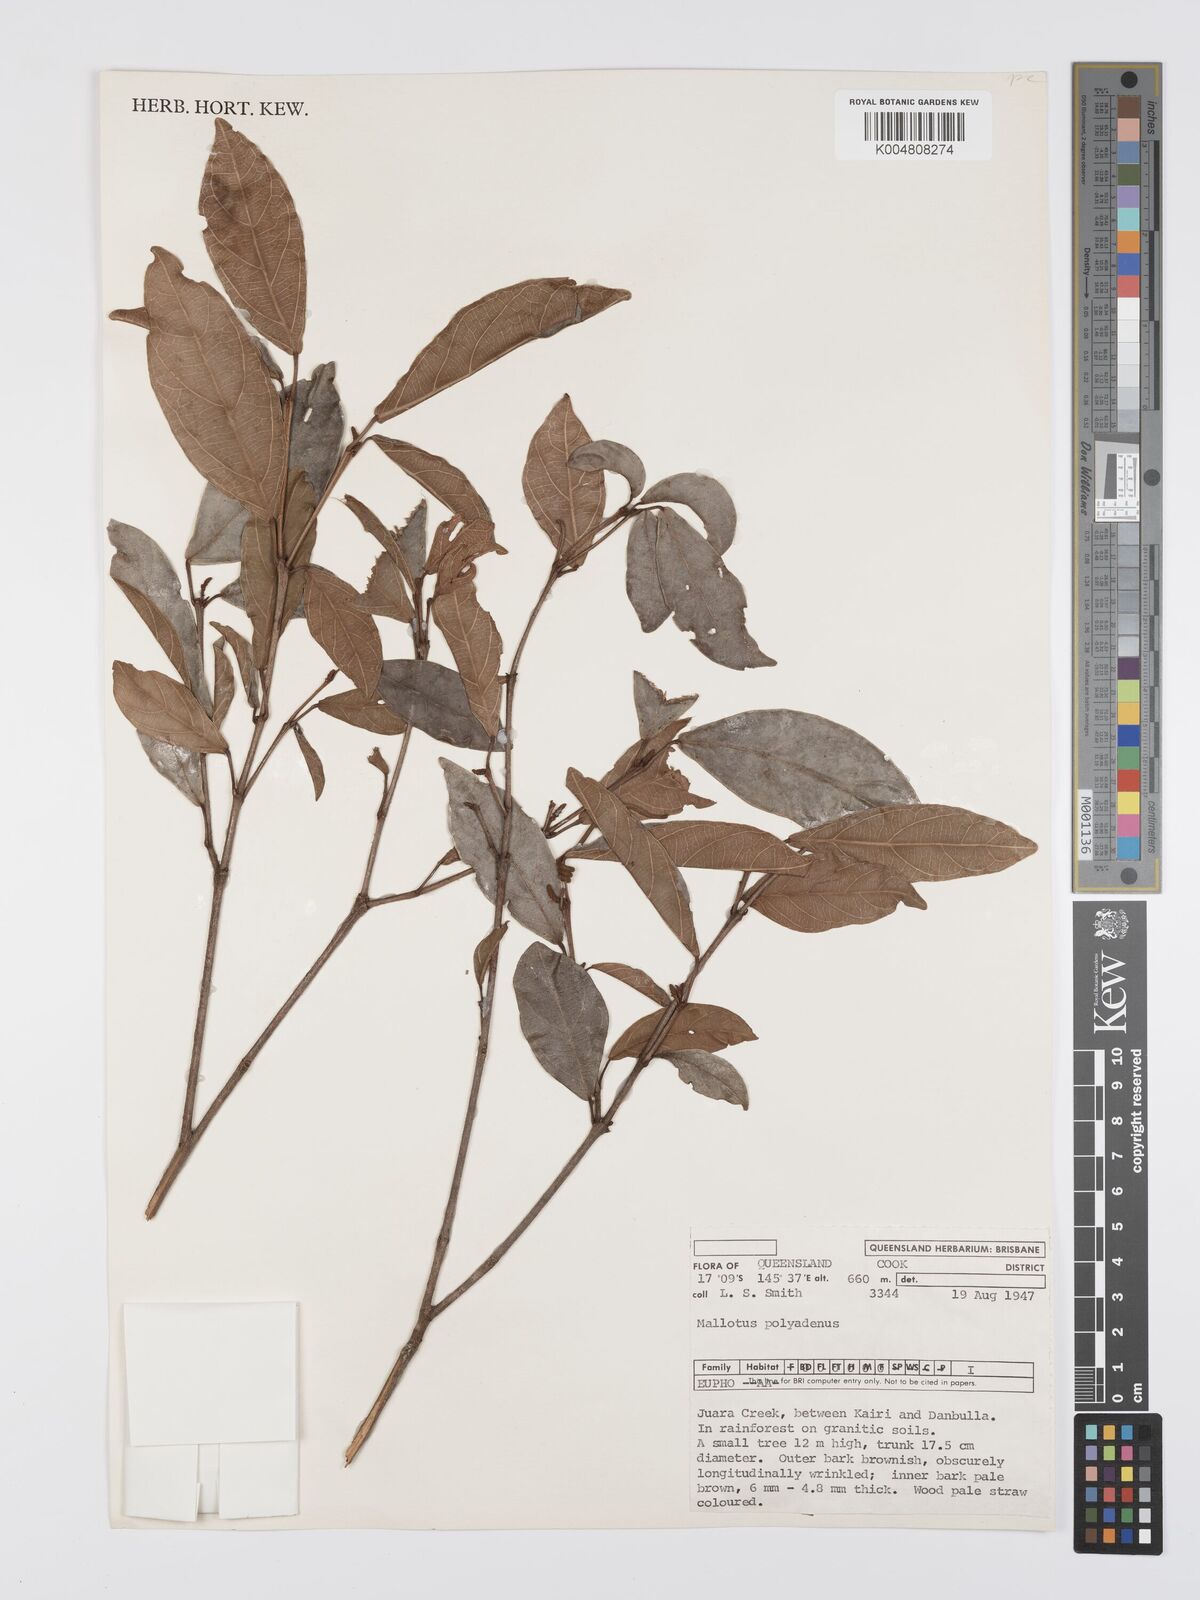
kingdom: Plantae
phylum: Tracheophyta
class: Magnoliopsida
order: Malpighiales
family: Euphorbiaceae
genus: Mallotus
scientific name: Mallotus polyadenos
